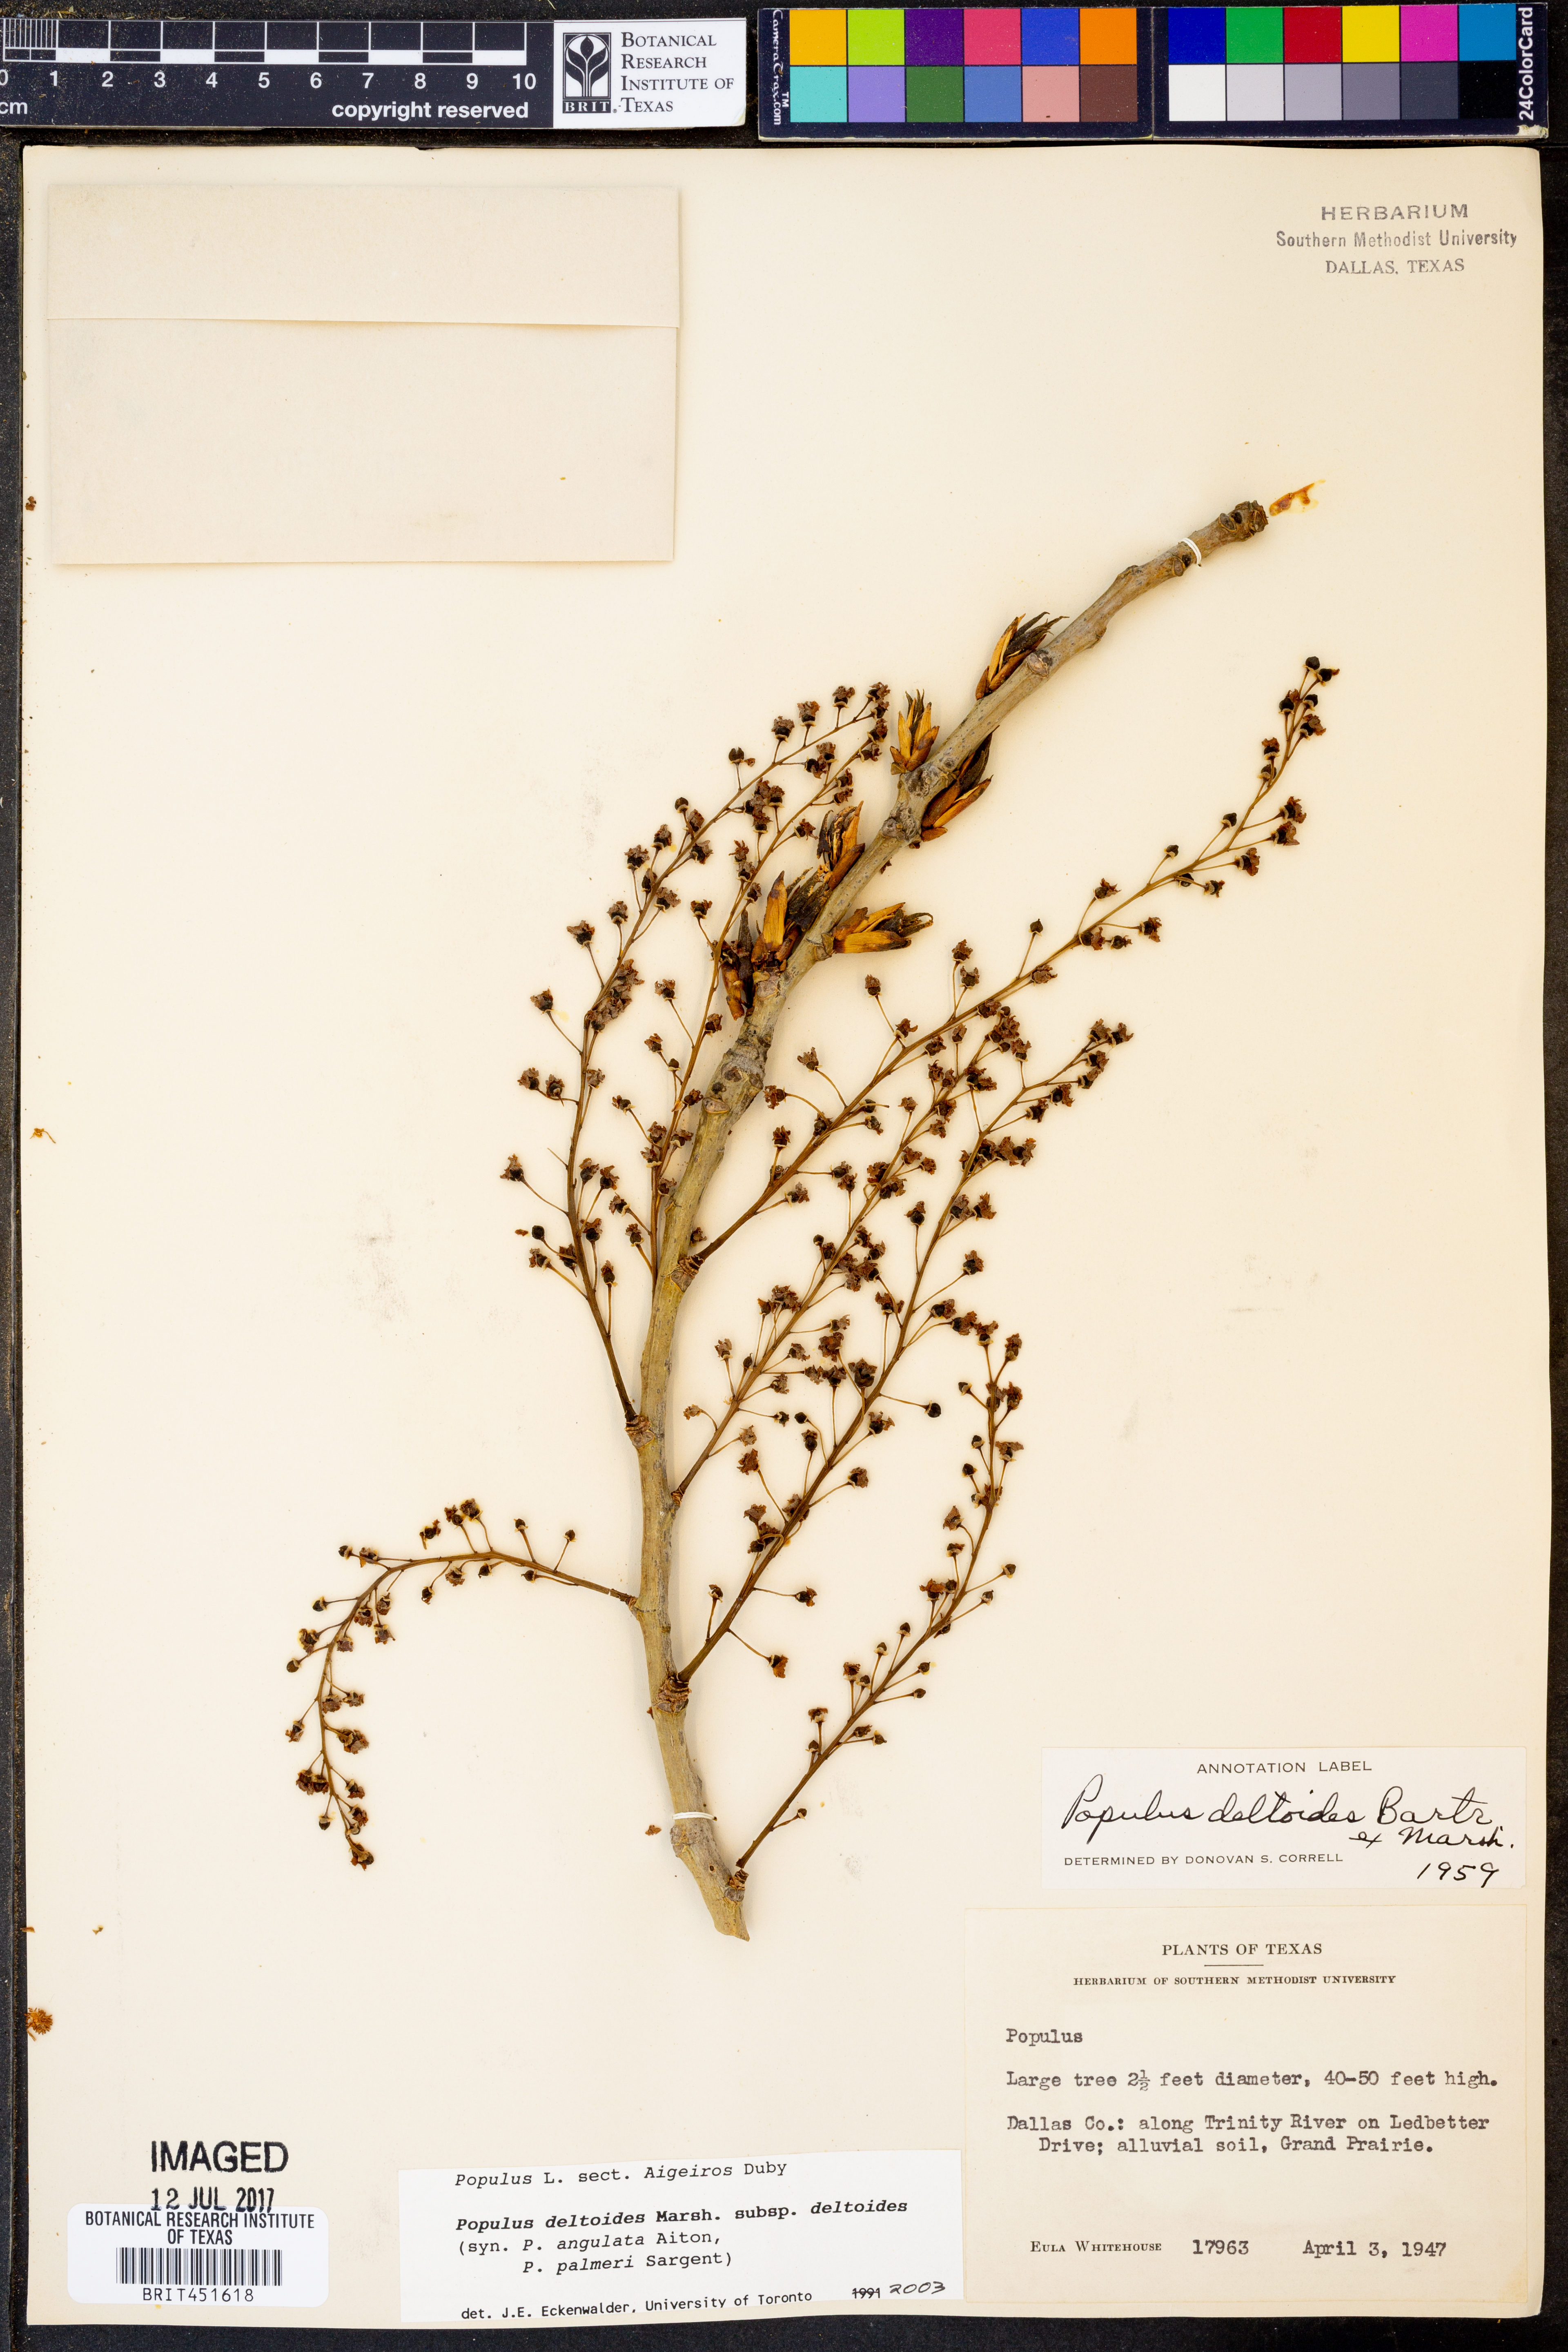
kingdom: Plantae
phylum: Tracheophyta
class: Magnoliopsida
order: Malpighiales
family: Salicaceae
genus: Populus
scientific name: Populus deltoides
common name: Eastern cottonwood
